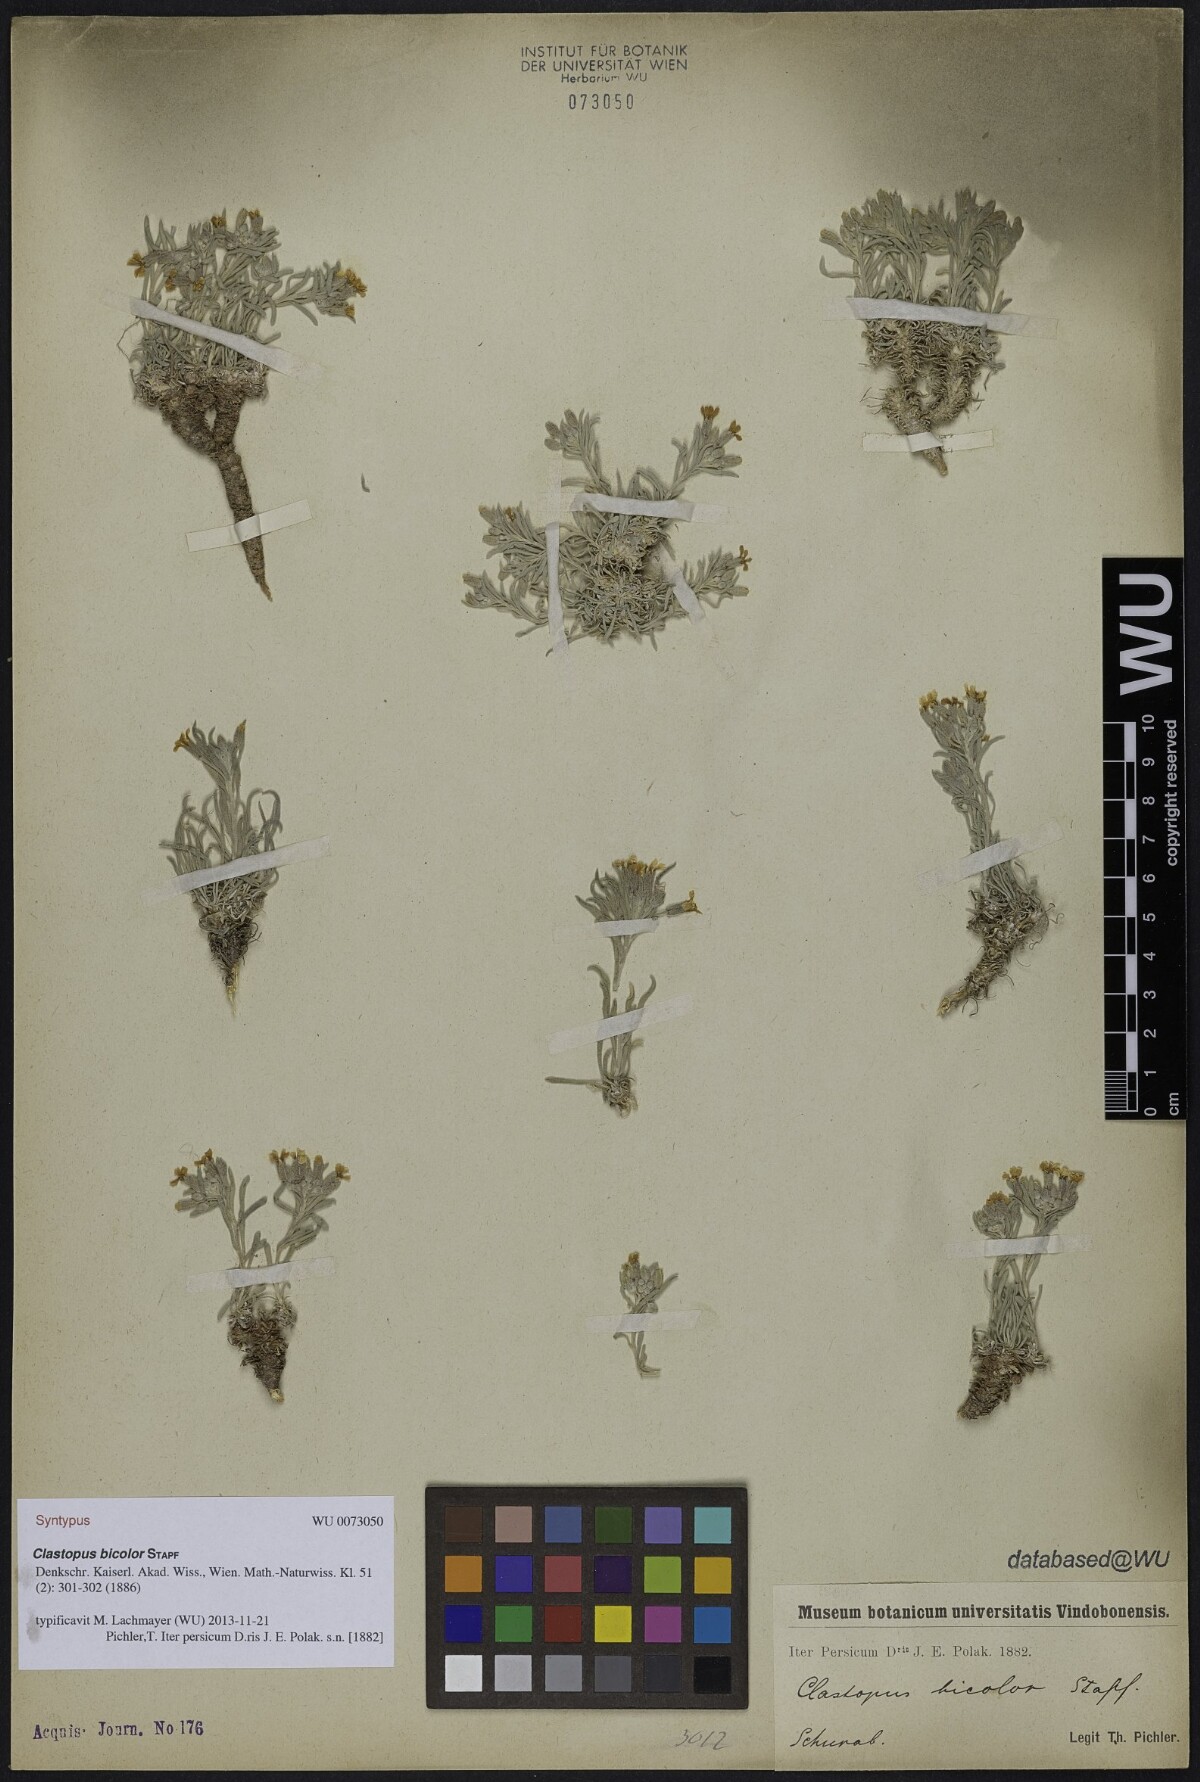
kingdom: Plantae
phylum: Tracheophyta
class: Magnoliopsida
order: Brassicales
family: Brassicaceae
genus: Clastopus
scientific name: Clastopus purpureus
